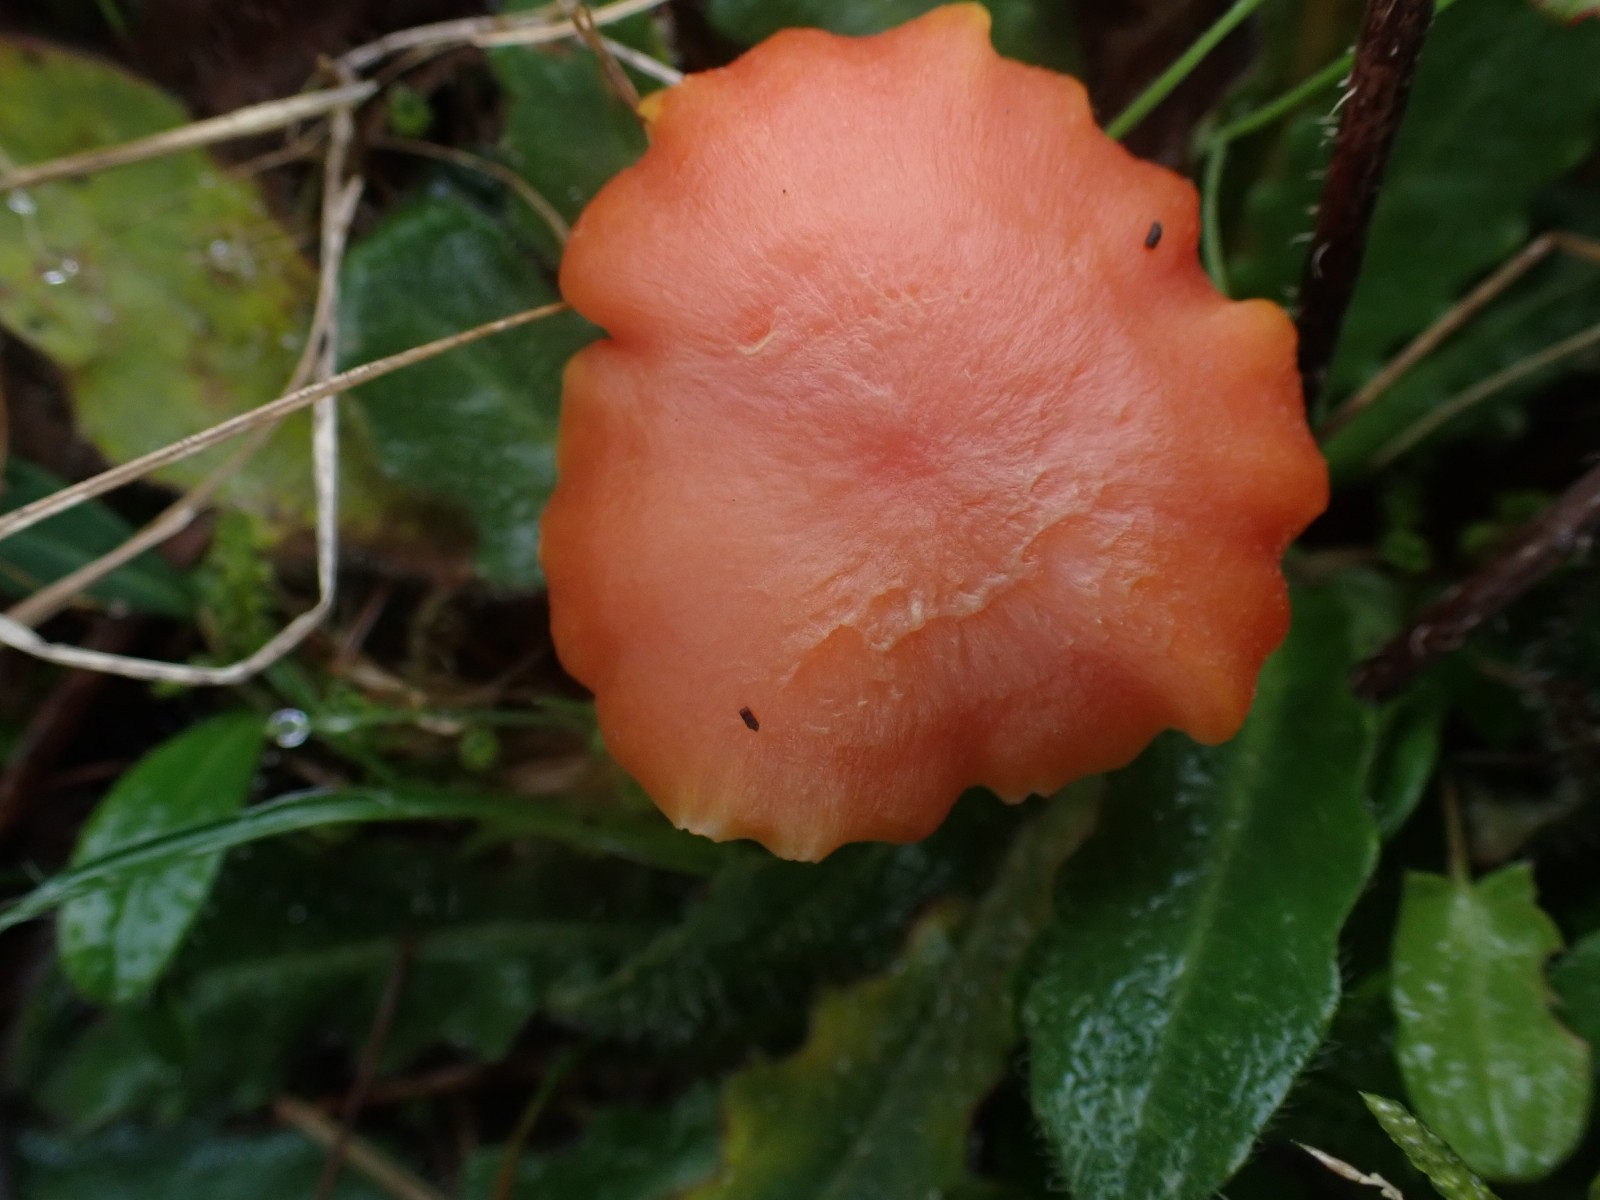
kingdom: Fungi
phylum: Basidiomycota
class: Agaricomycetes
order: Agaricales
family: Hygrophoraceae
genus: Hygrocybe
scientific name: Hygrocybe miniata
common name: mønje-vokshat
